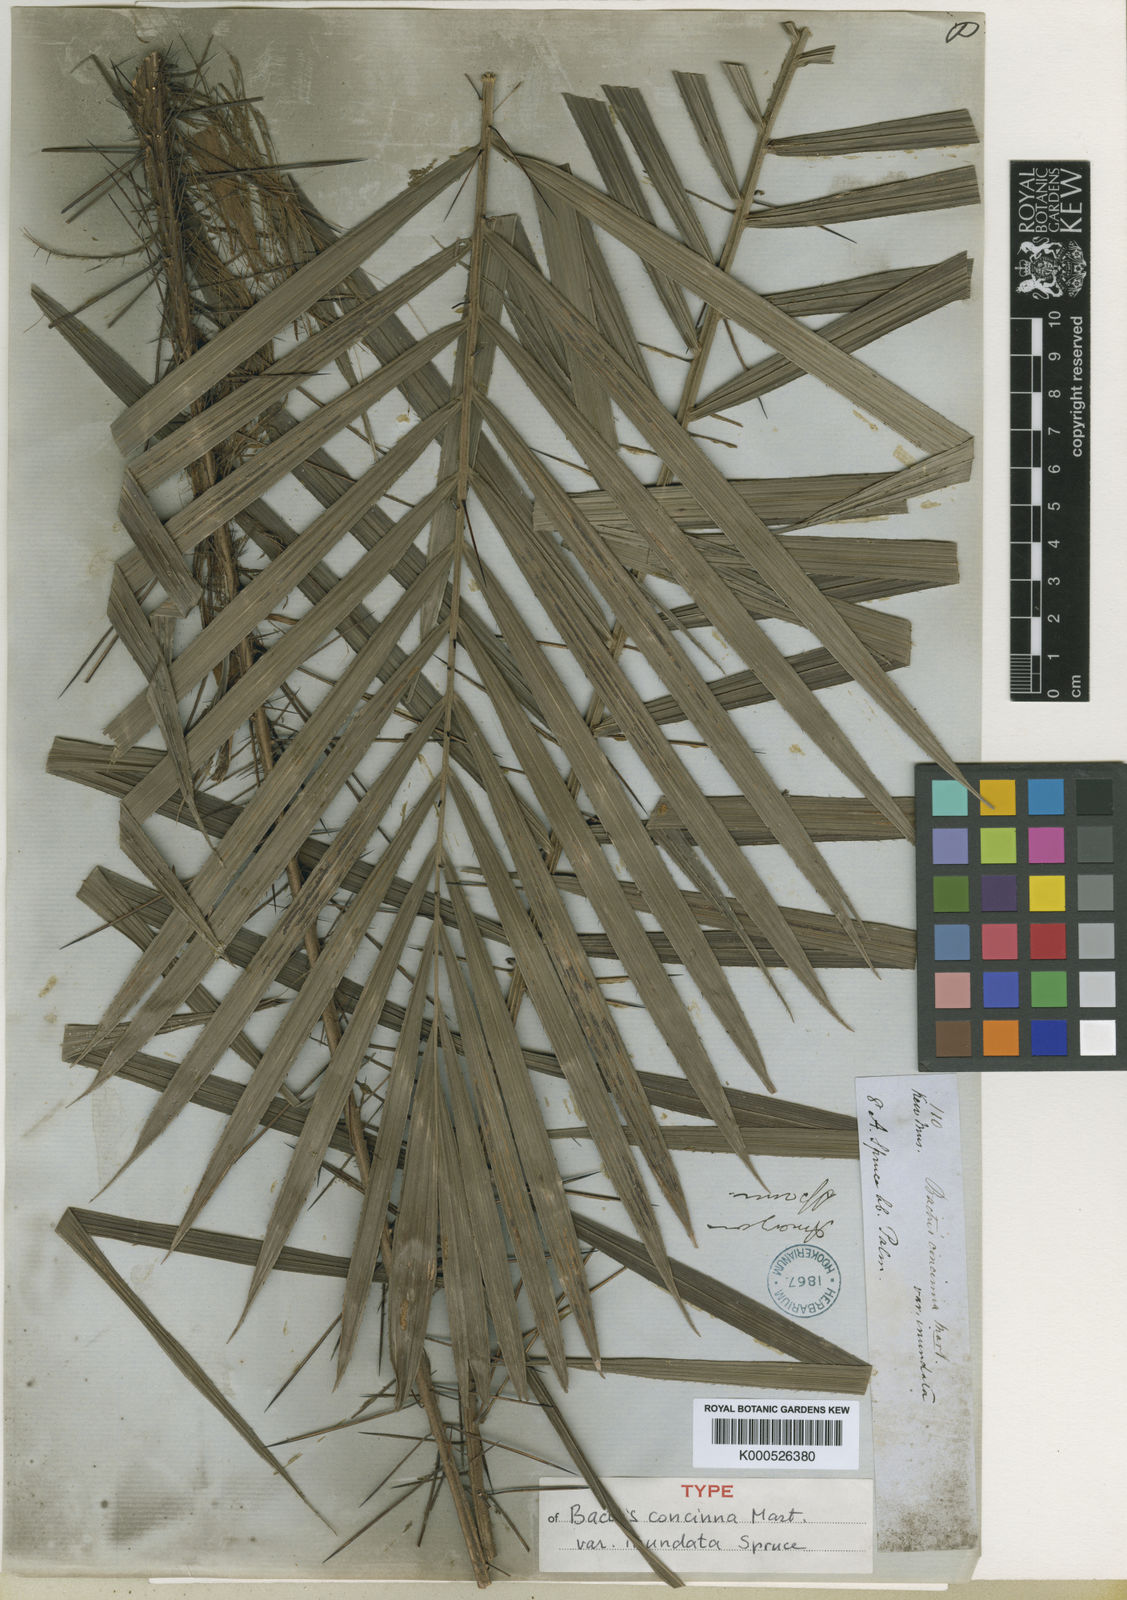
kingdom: Plantae
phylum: Tracheophyta
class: Liliopsida
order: Arecales
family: Arecaceae
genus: Bactris
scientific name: Bactris concinna
